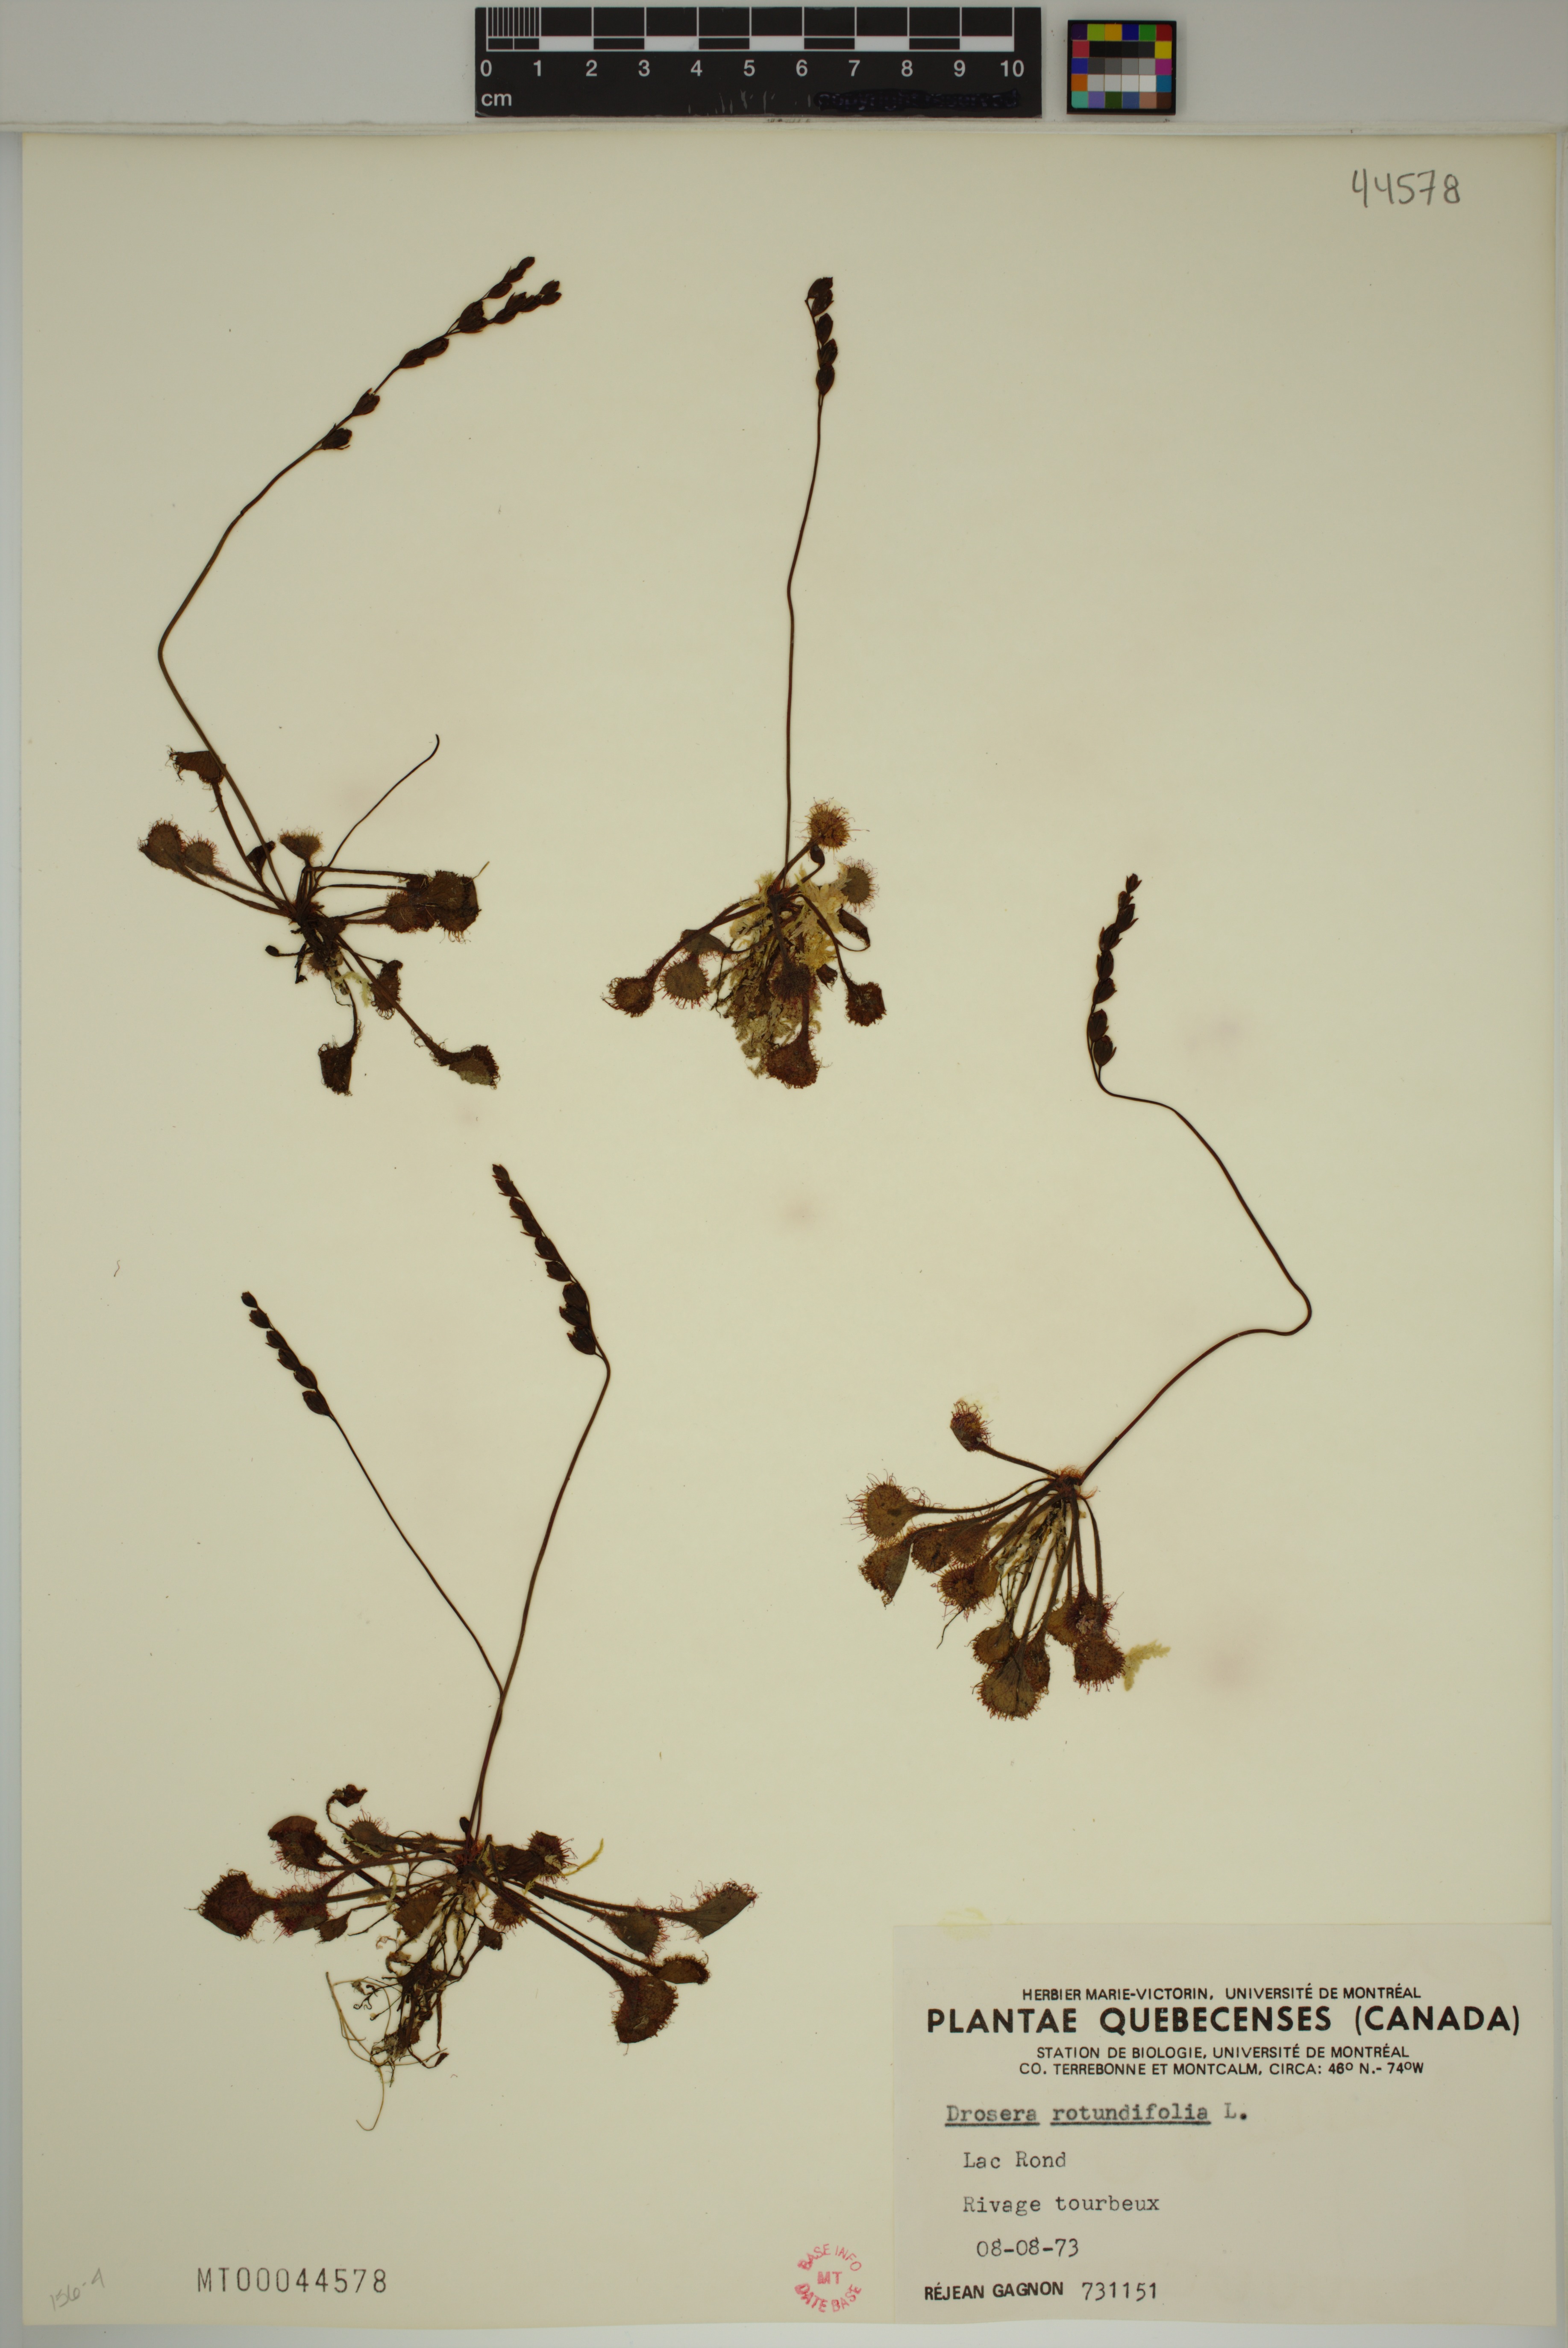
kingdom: Plantae
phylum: Tracheophyta
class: Magnoliopsida
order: Caryophyllales
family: Droseraceae
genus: Drosera
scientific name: Drosera rotundifolia
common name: Round-leaved sundew
